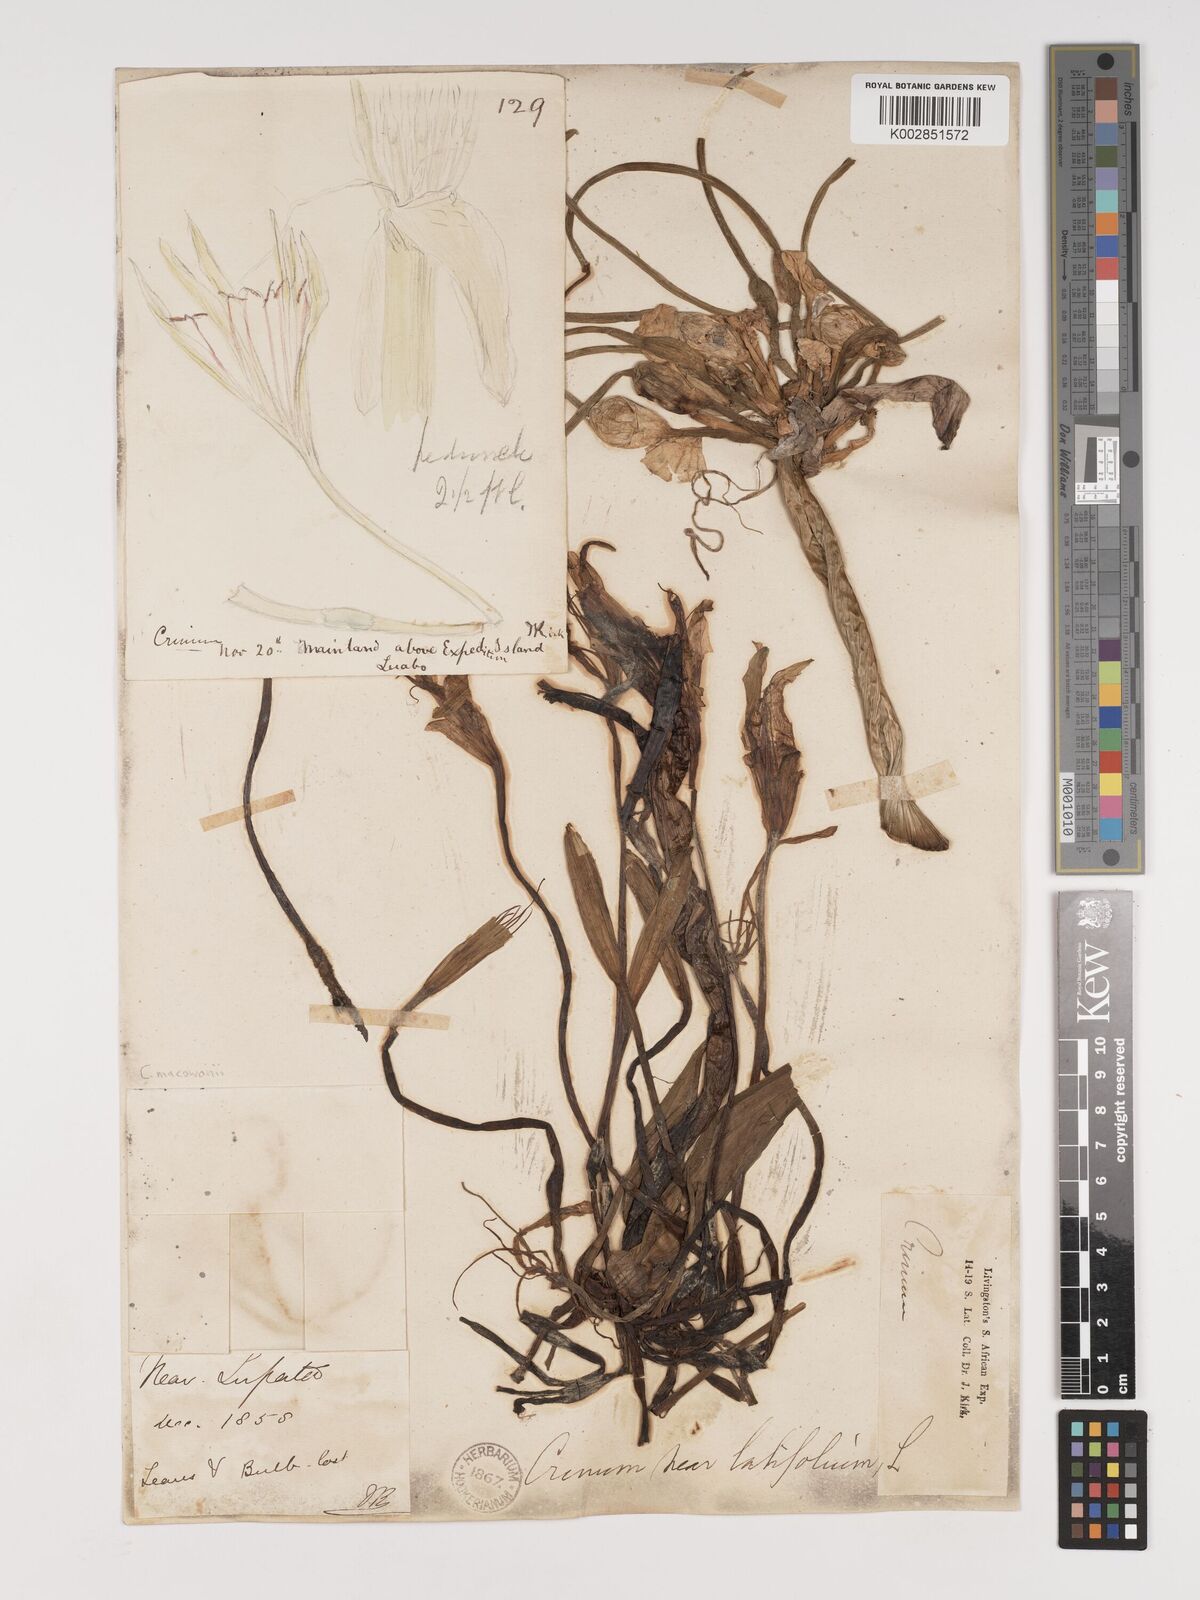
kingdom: Plantae
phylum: Tracheophyta
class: Liliopsida
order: Asparagales
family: Amaryllidaceae
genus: Crinum
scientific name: Crinum macowanii
